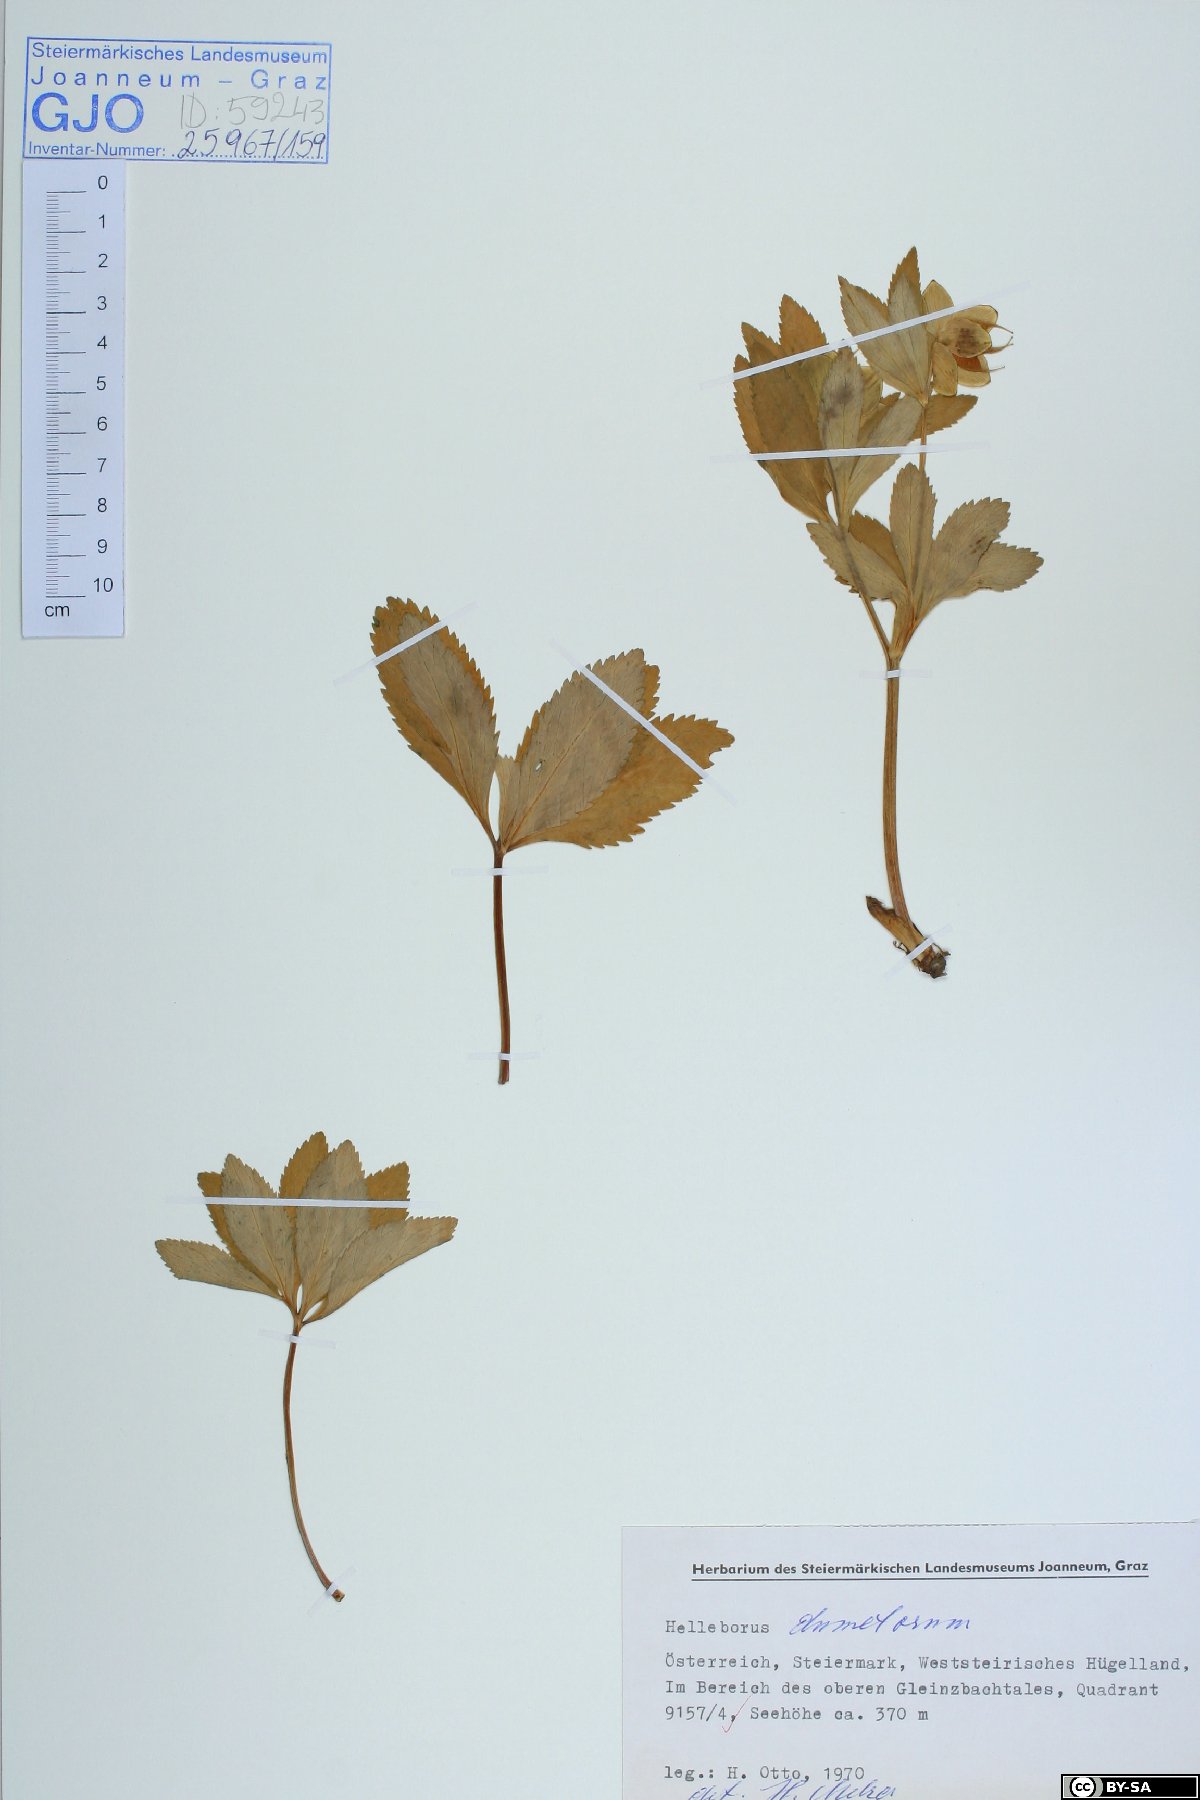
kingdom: Plantae
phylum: Tracheophyta
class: Magnoliopsida
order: Ranunculales
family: Ranunculaceae
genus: Helleborus
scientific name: Helleborus dumetorum
